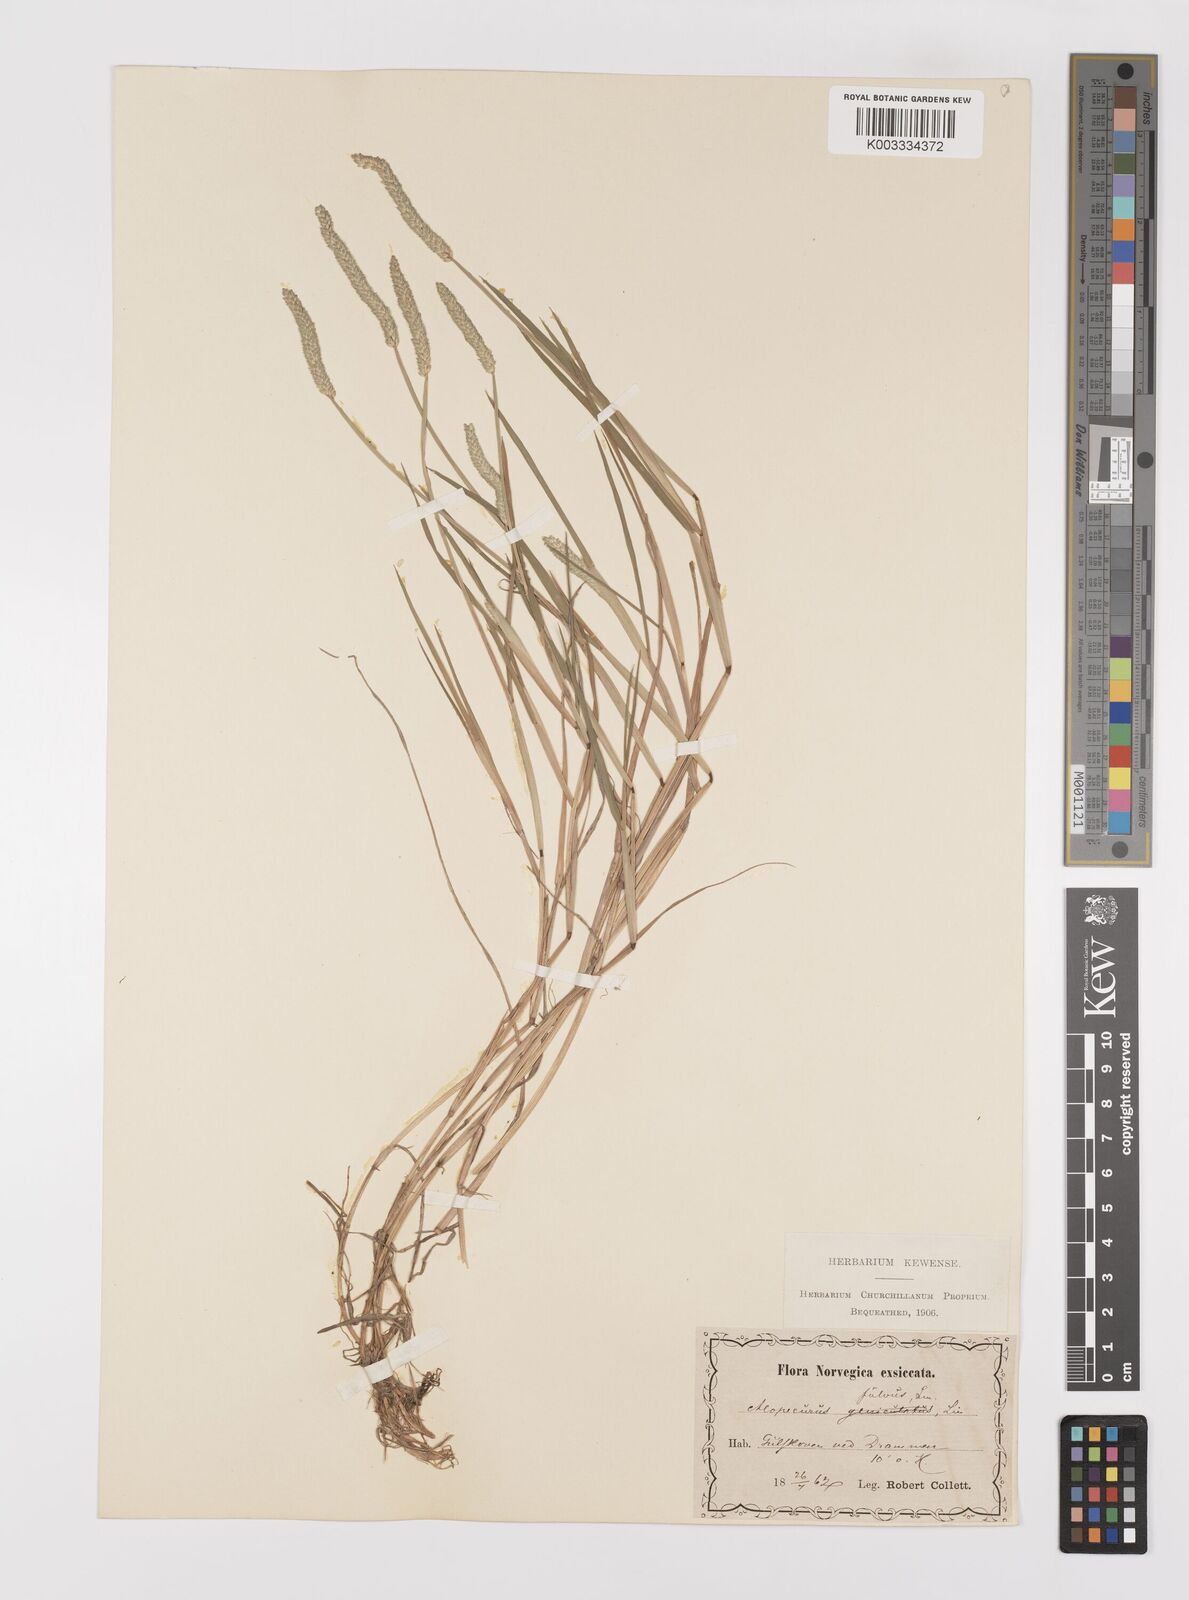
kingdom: Plantae
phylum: Tracheophyta
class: Liliopsida
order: Poales
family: Poaceae
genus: Alopecurus
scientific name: Alopecurus aequalis
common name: Orange foxtail
